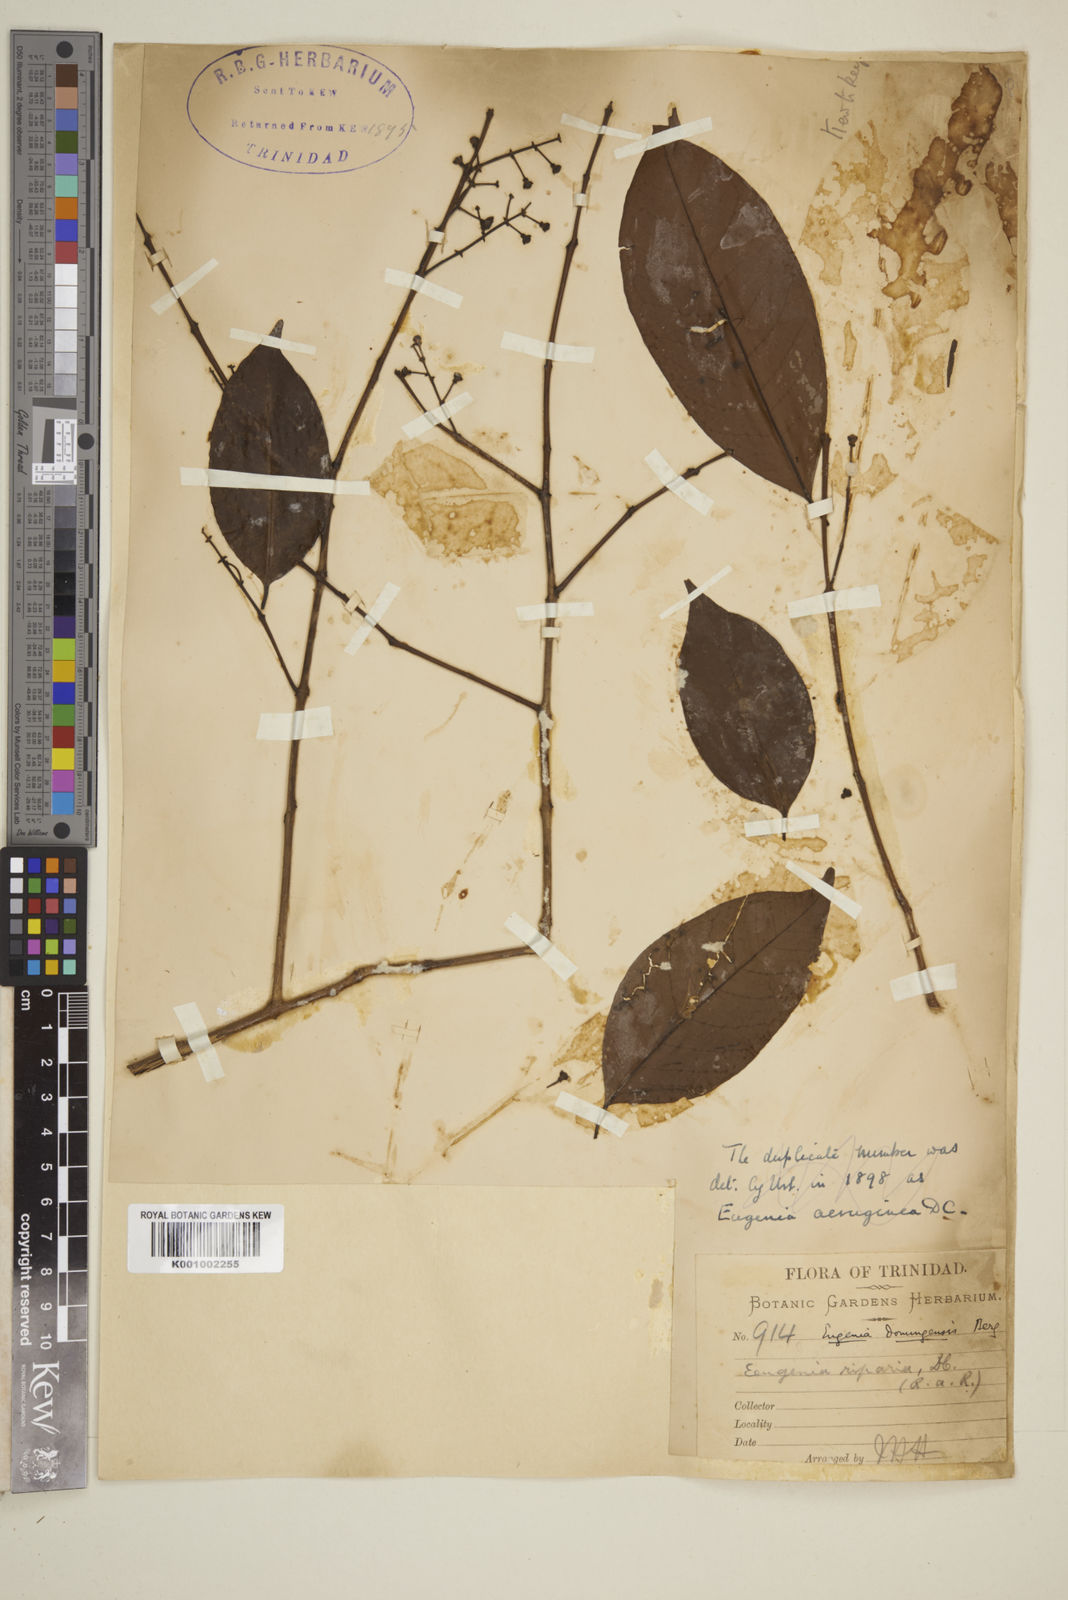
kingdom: Plantae
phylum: Tracheophyta
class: Magnoliopsida
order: Myrtales
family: Myrtaceae
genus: Eugenia
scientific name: Eugenia domingensis
